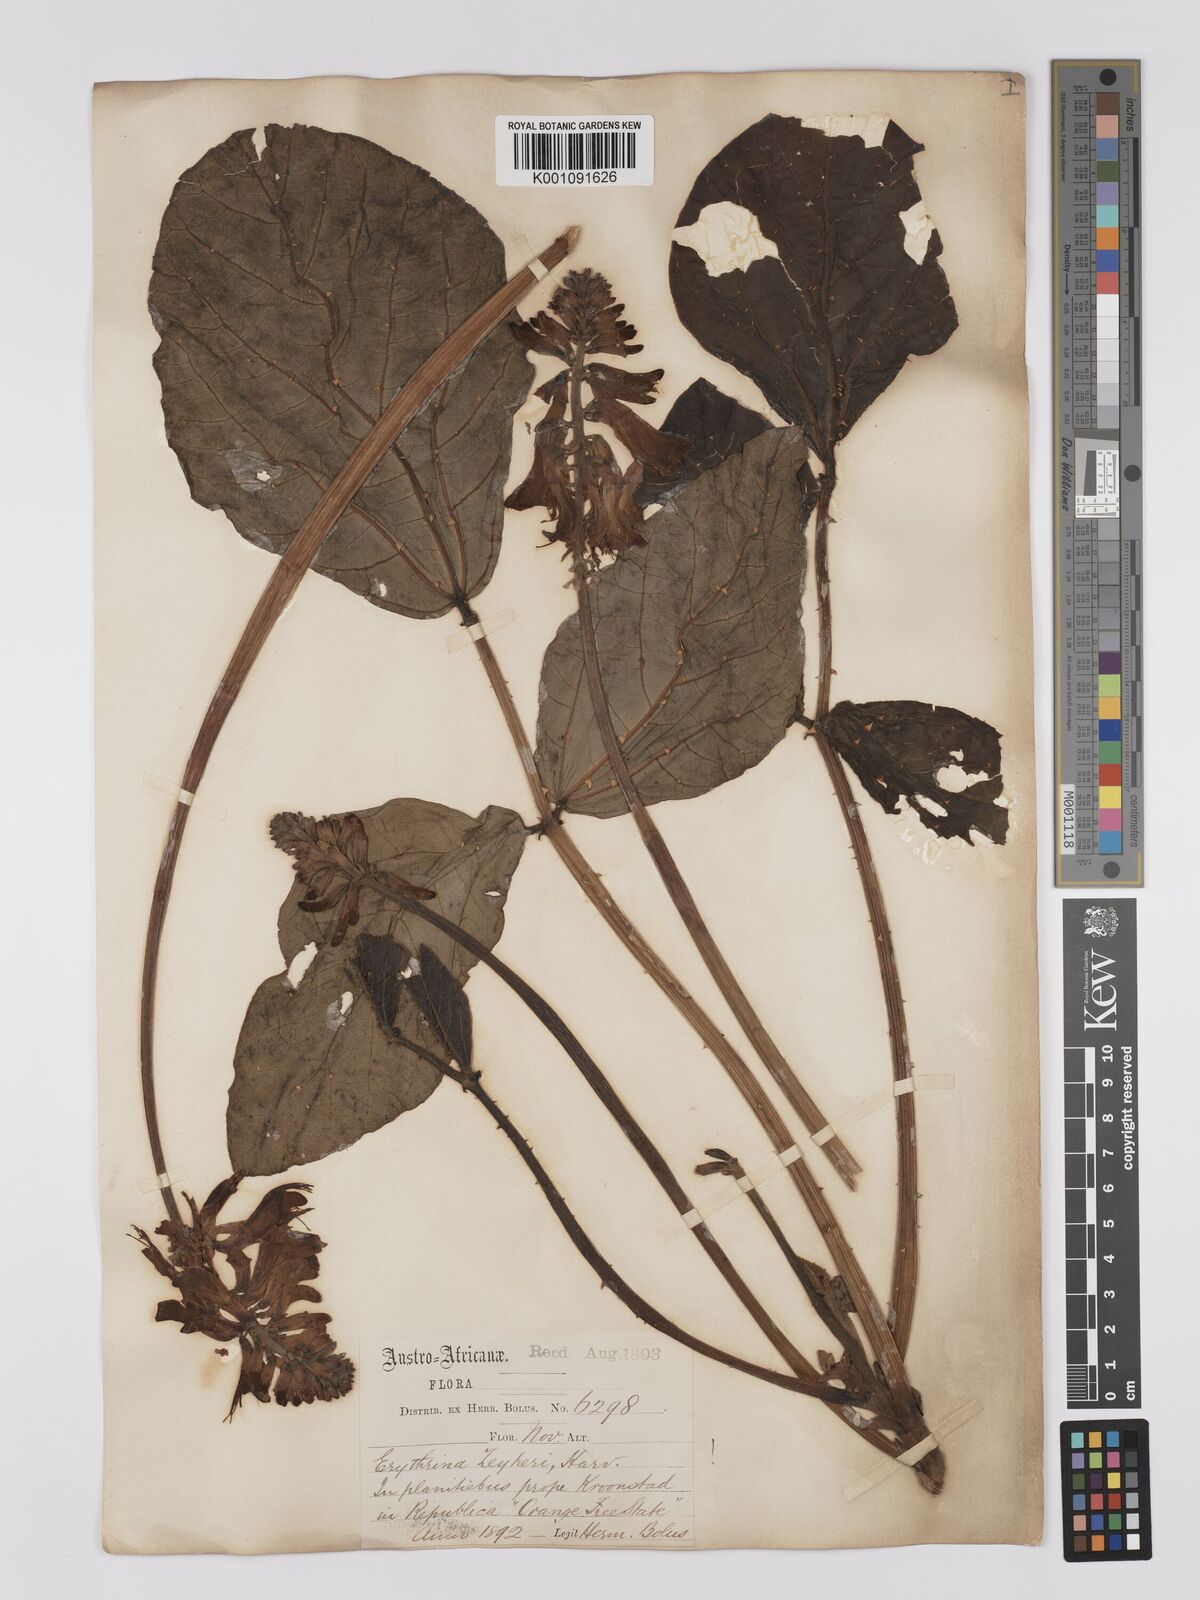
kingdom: Plantae
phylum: Tracheophyta
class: Magnoliopsida
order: Fabales
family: Fabaceae
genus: Erythrina
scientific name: Erythrina zeyheri
